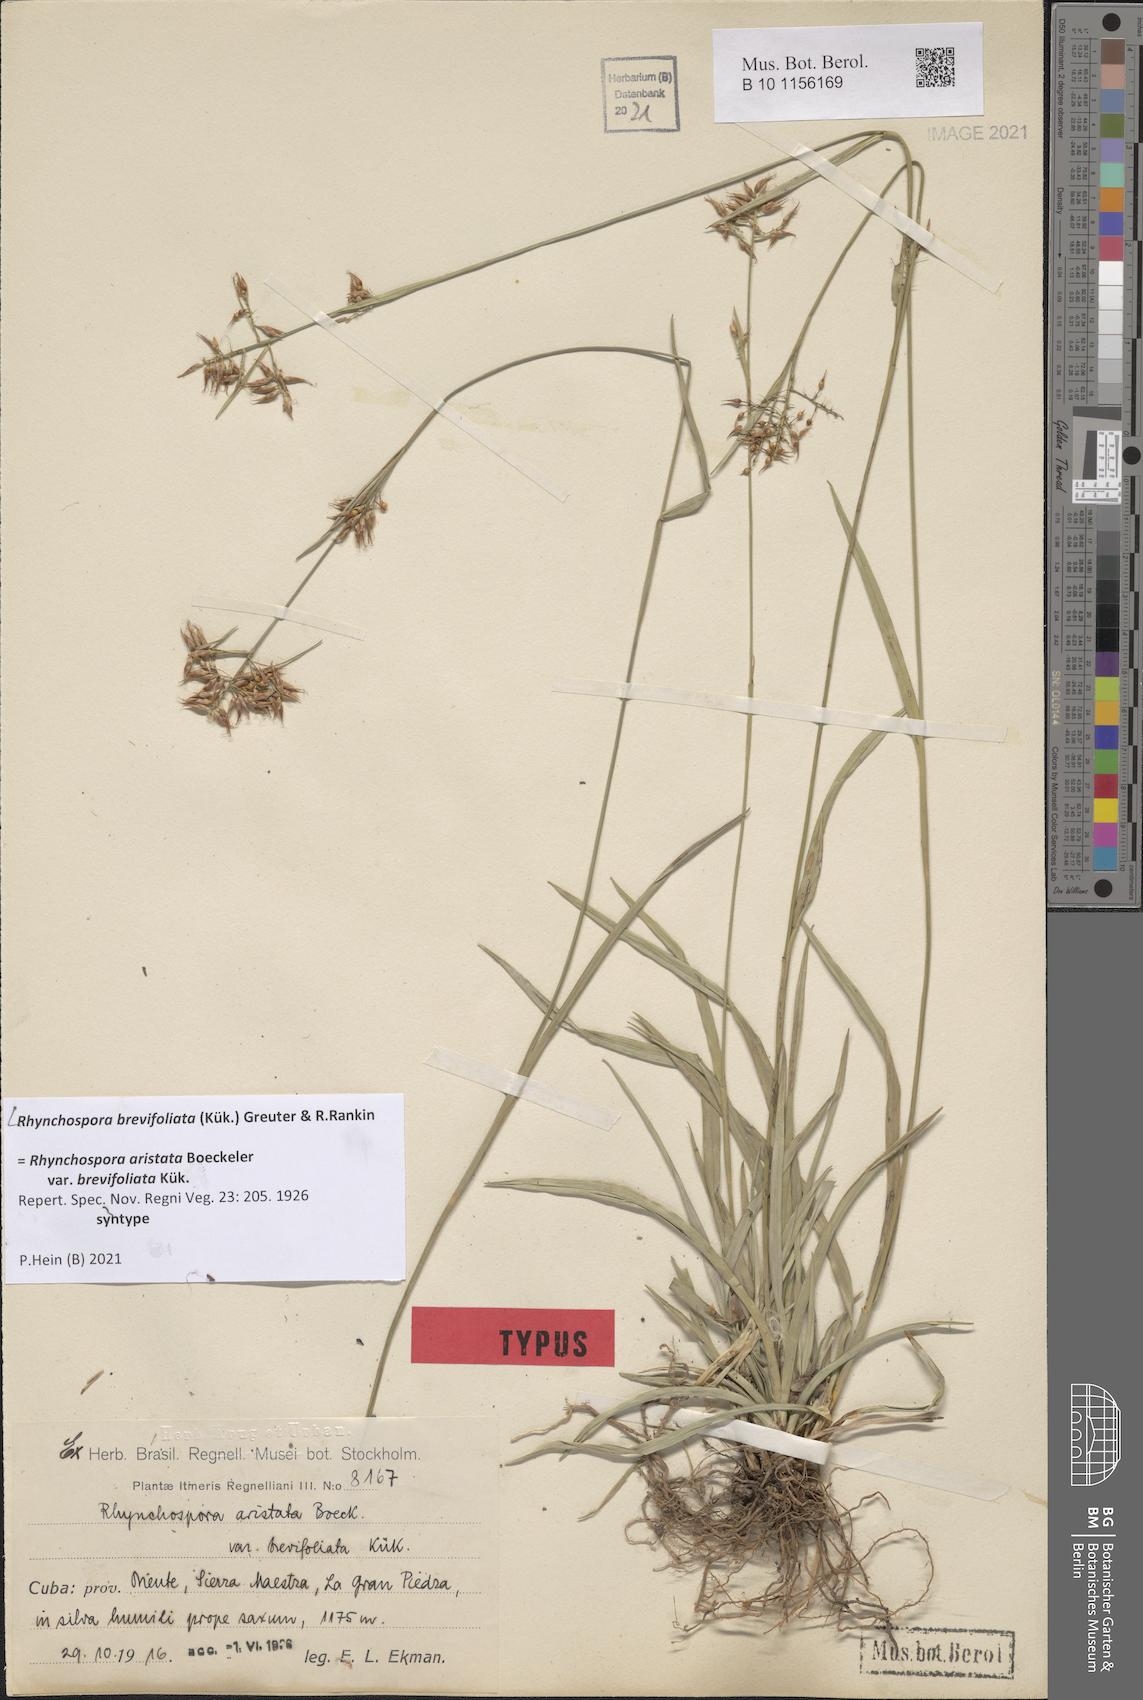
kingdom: Plantae
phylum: Tracheophyta
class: Liliopsida
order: Poales
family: Cyperaceae
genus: Rhynchospora
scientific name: Rhynchospora brevifoliata
